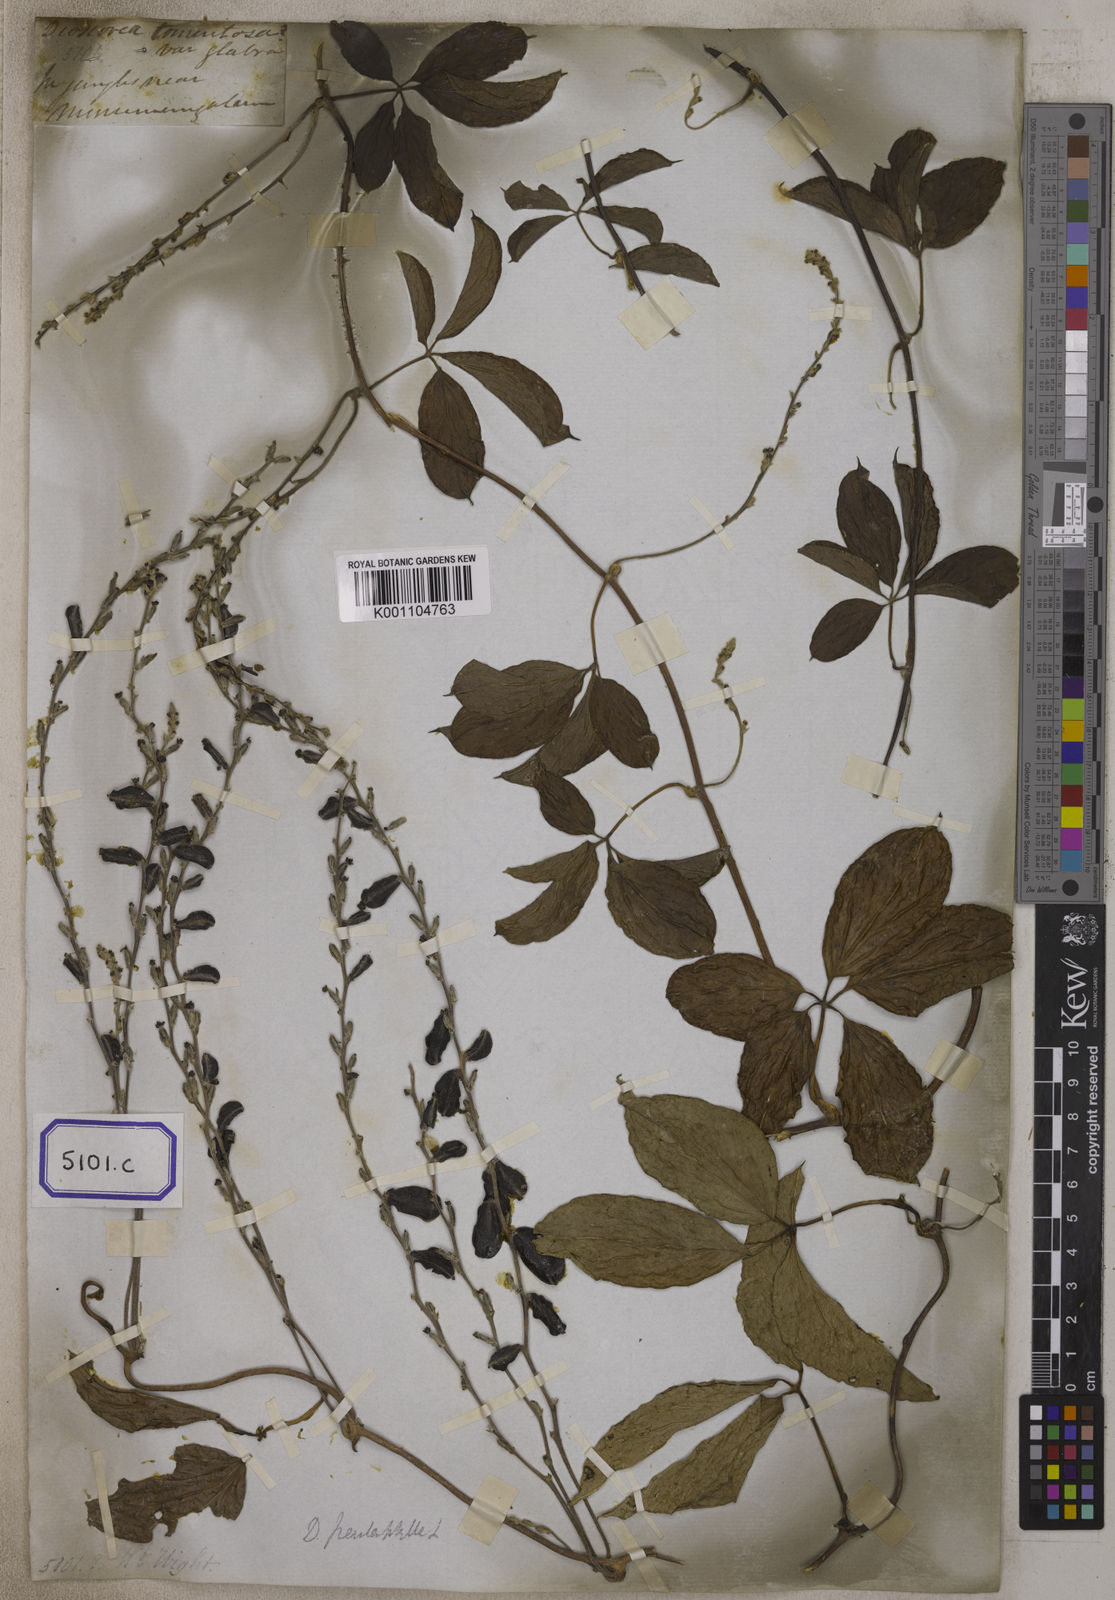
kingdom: Plantae
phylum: Tracheophyta
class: Liliopsida
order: Dioscoreales
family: Dioscoreaceae
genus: Dioscorea
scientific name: Dioscorea
